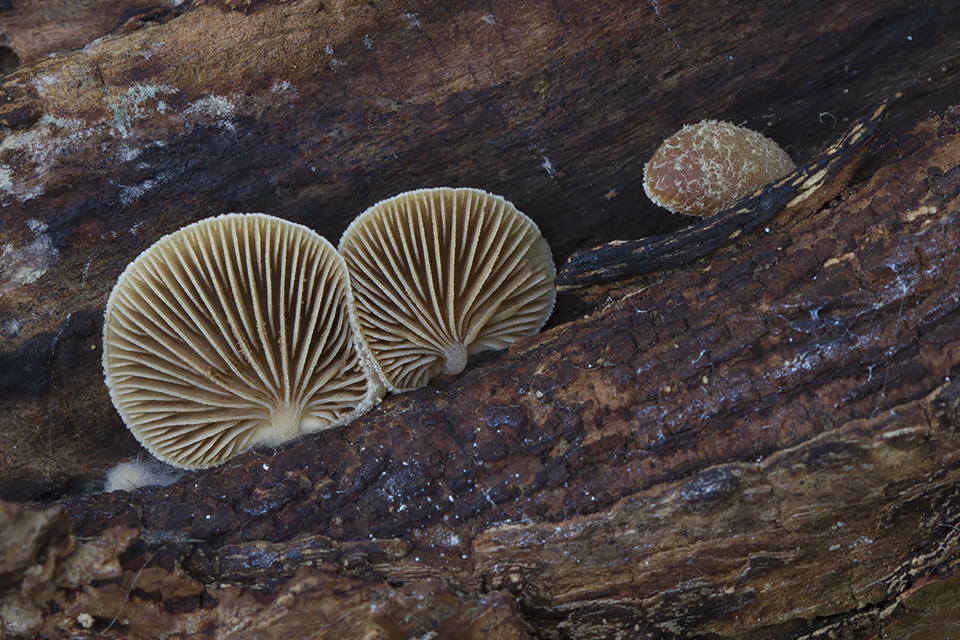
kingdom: Fungi
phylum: Basidiomycota
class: Agaricomycetes
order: Agaricales
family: Crepidotaceae
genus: Crepidotus
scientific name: Crepidotus mollis
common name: blød muslingesvamp
